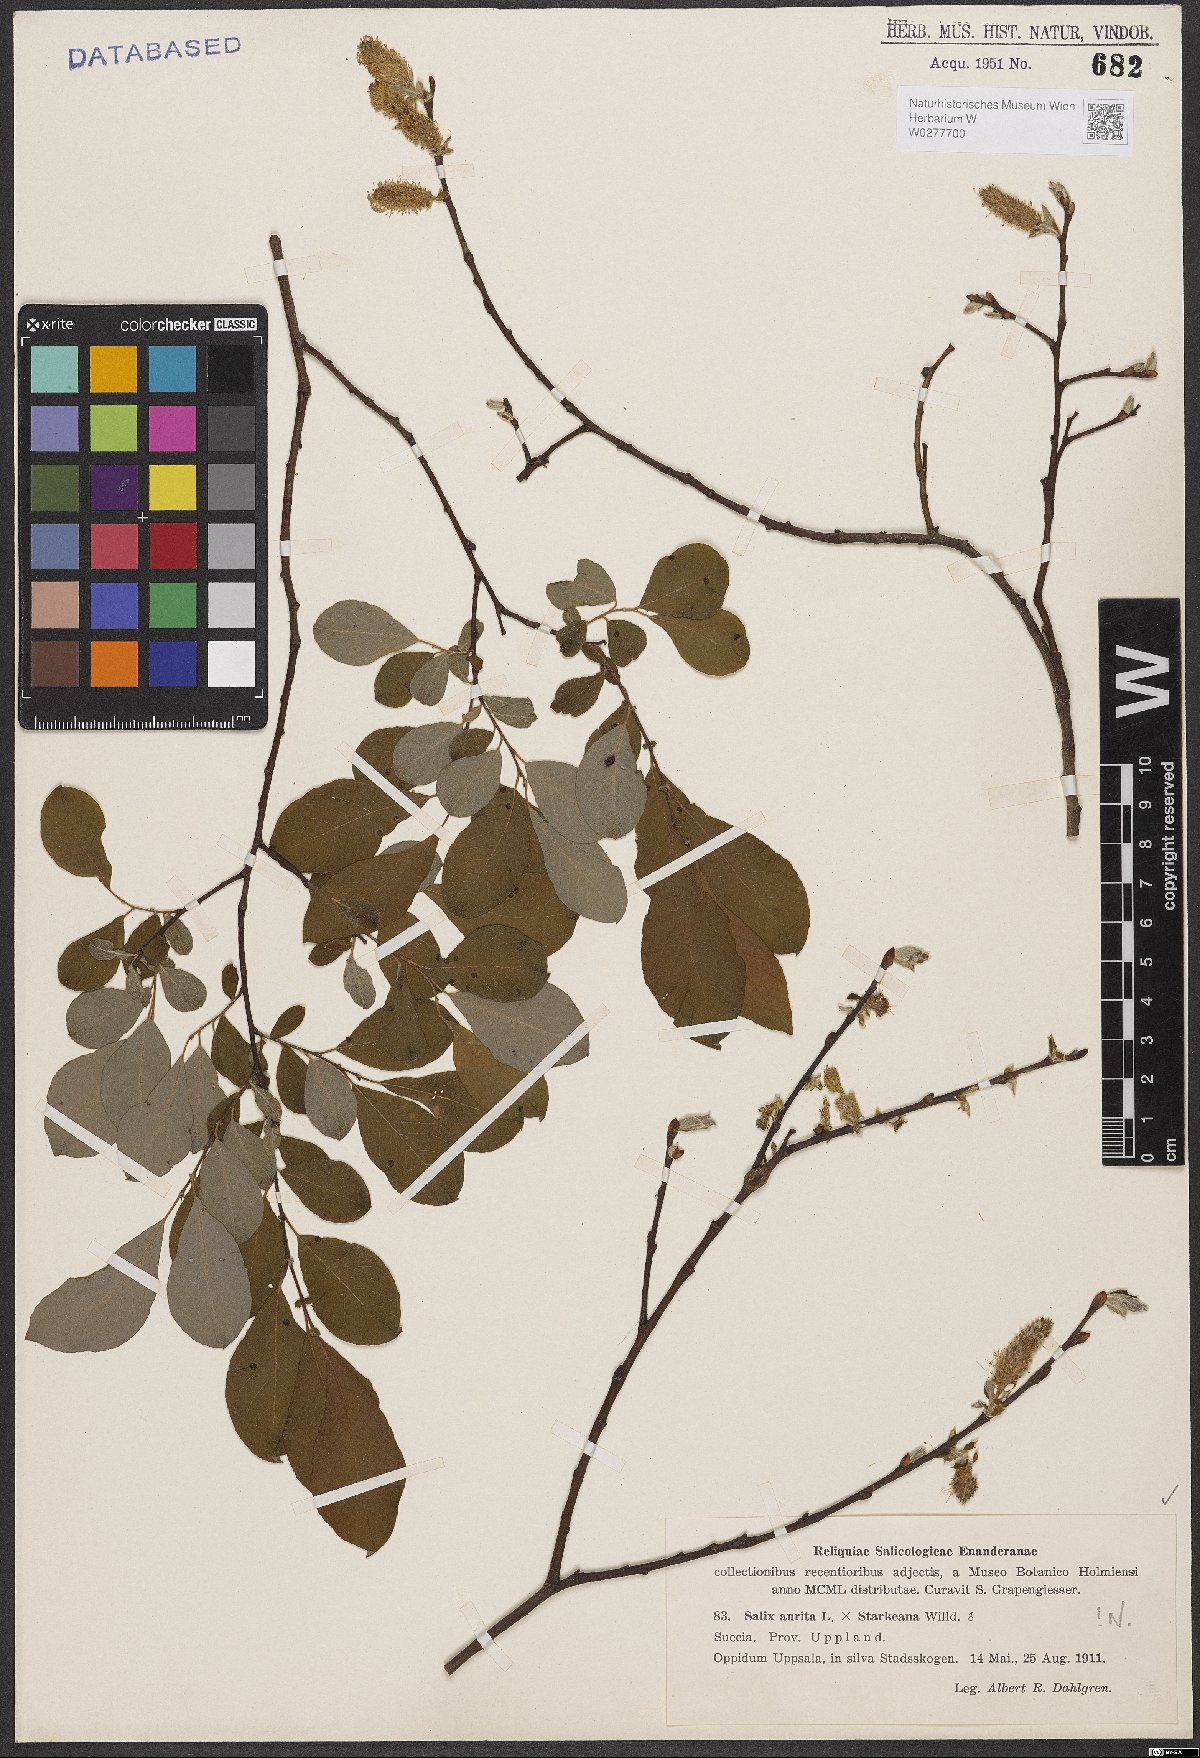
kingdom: Plantae
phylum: Tracheophyta
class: Magnoliopsida
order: Malpighiales
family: Salicaceae
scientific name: Salicaceae
